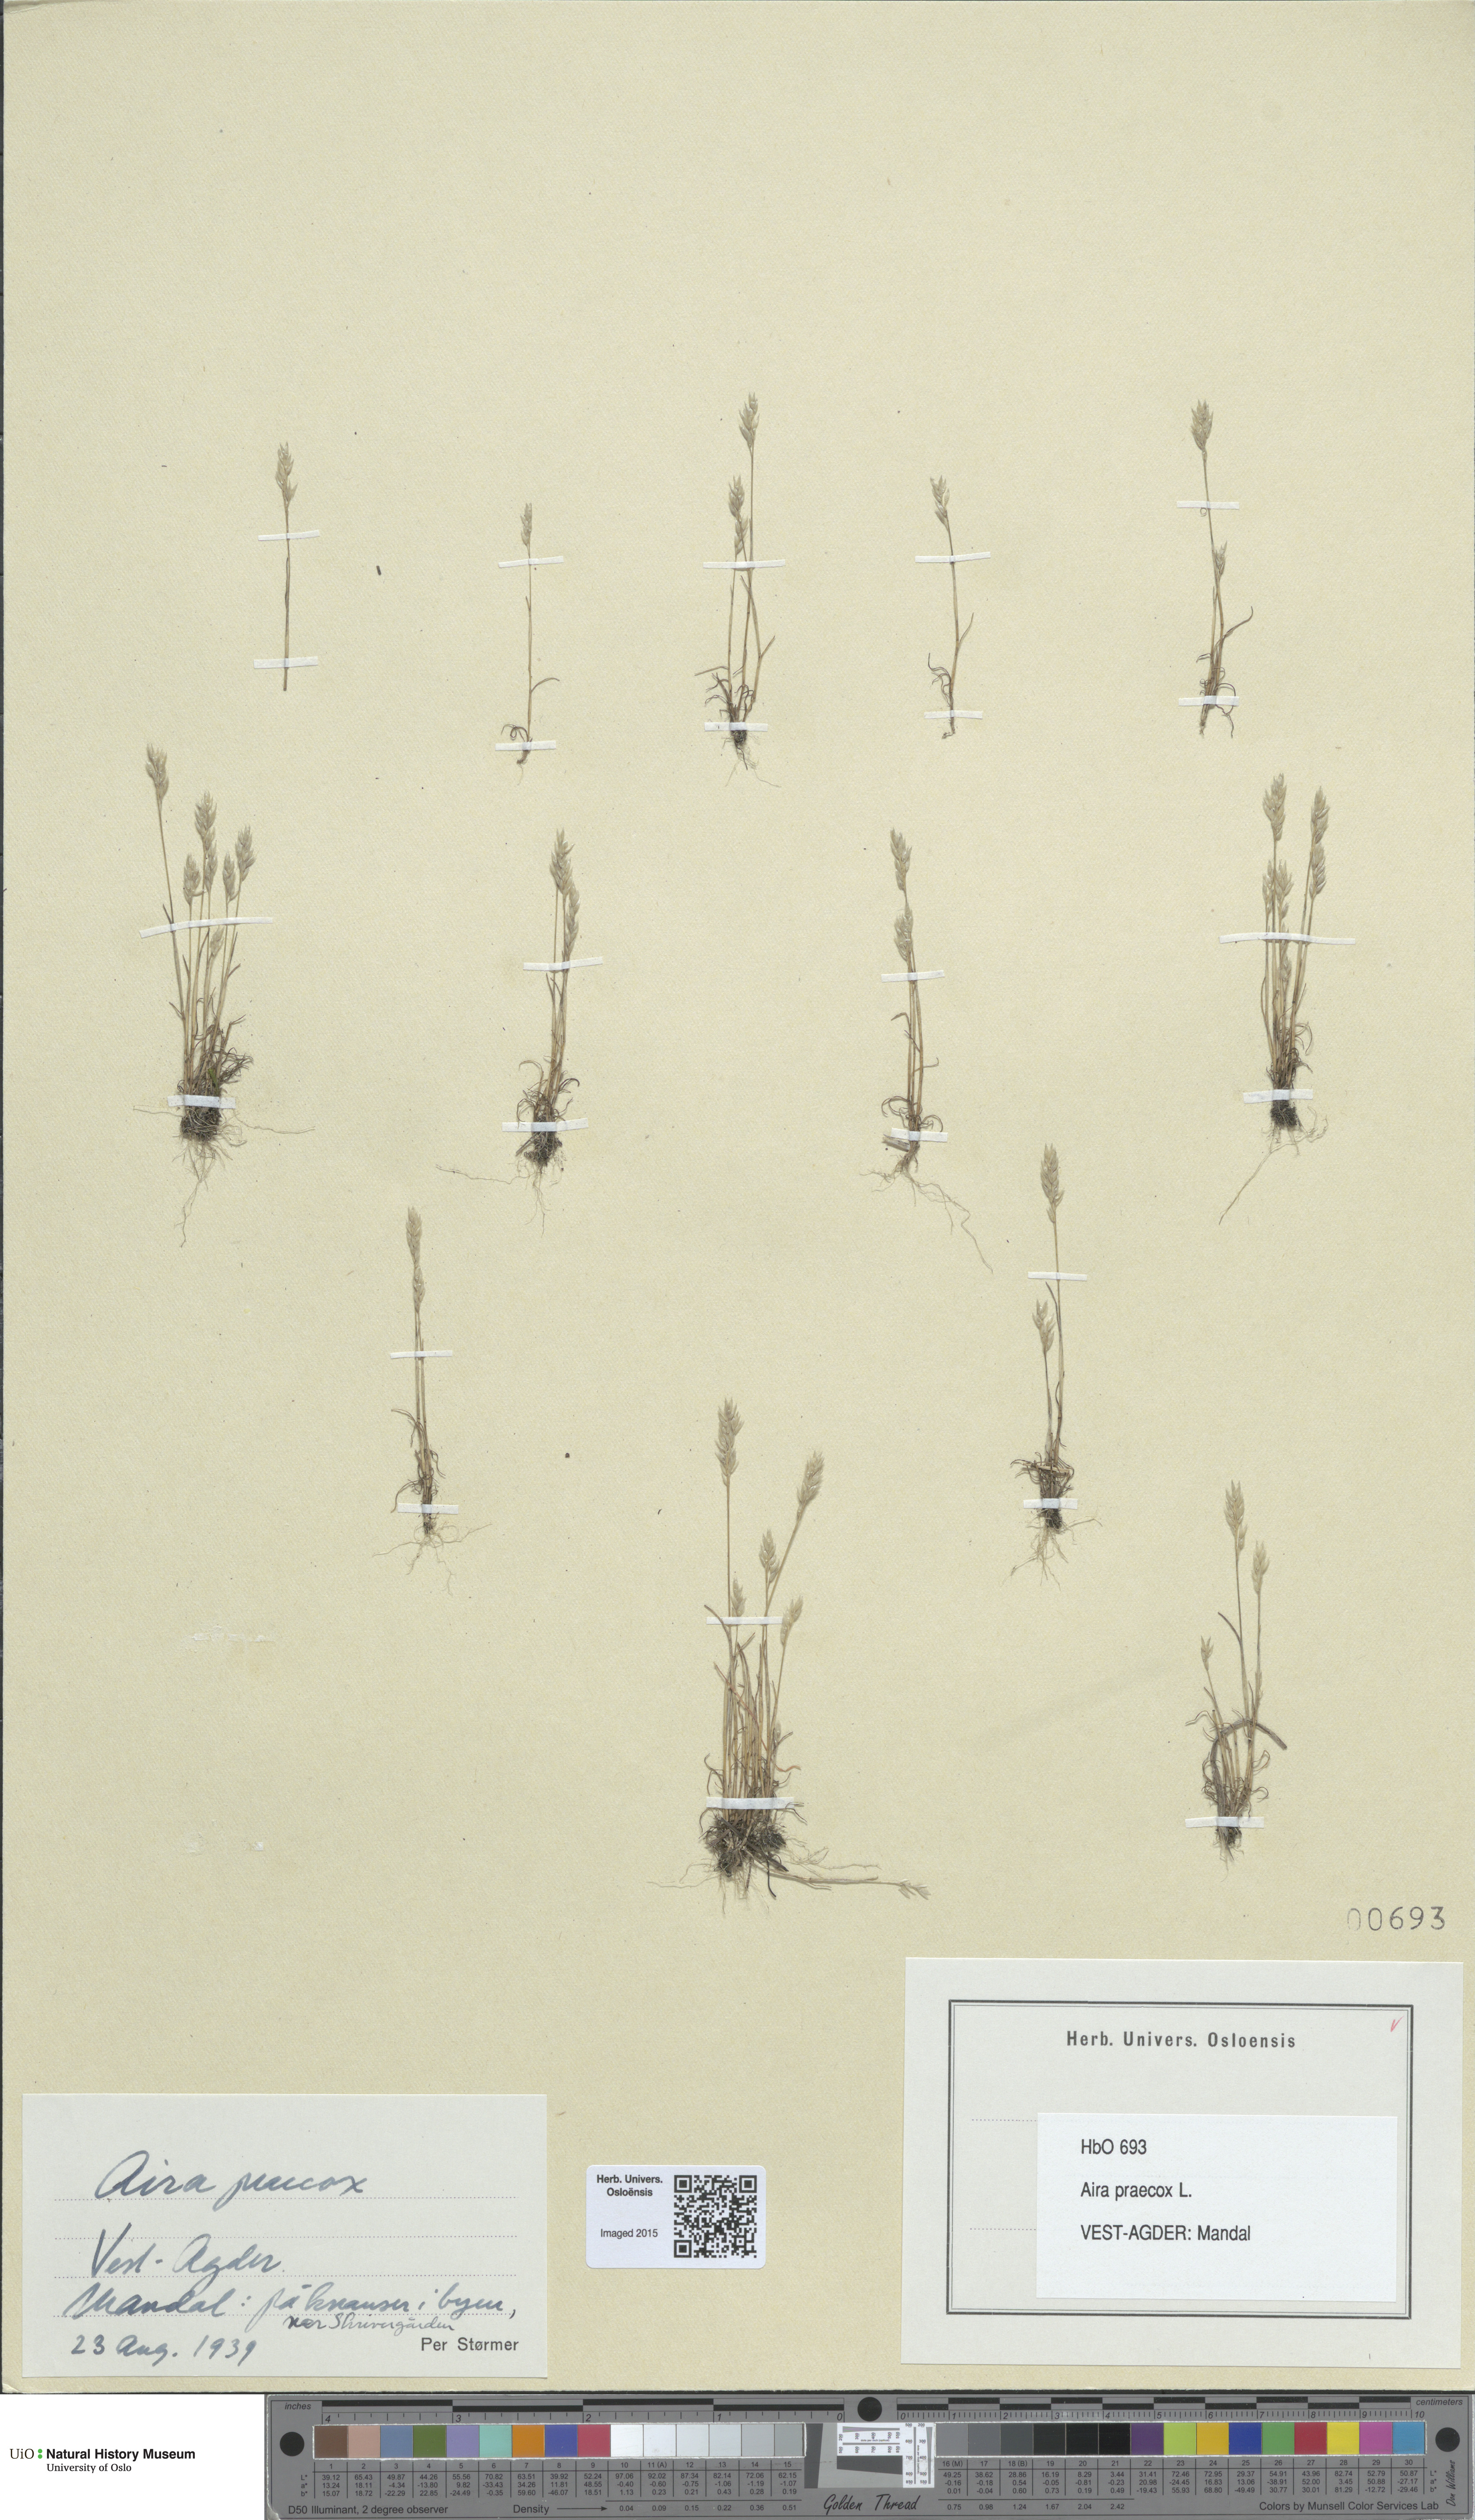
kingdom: Plantae
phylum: Tracheophyta
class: Liliopsida
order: Poales
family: Poaceae
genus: Aira
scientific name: Aira praecox
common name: Early hair-grass
